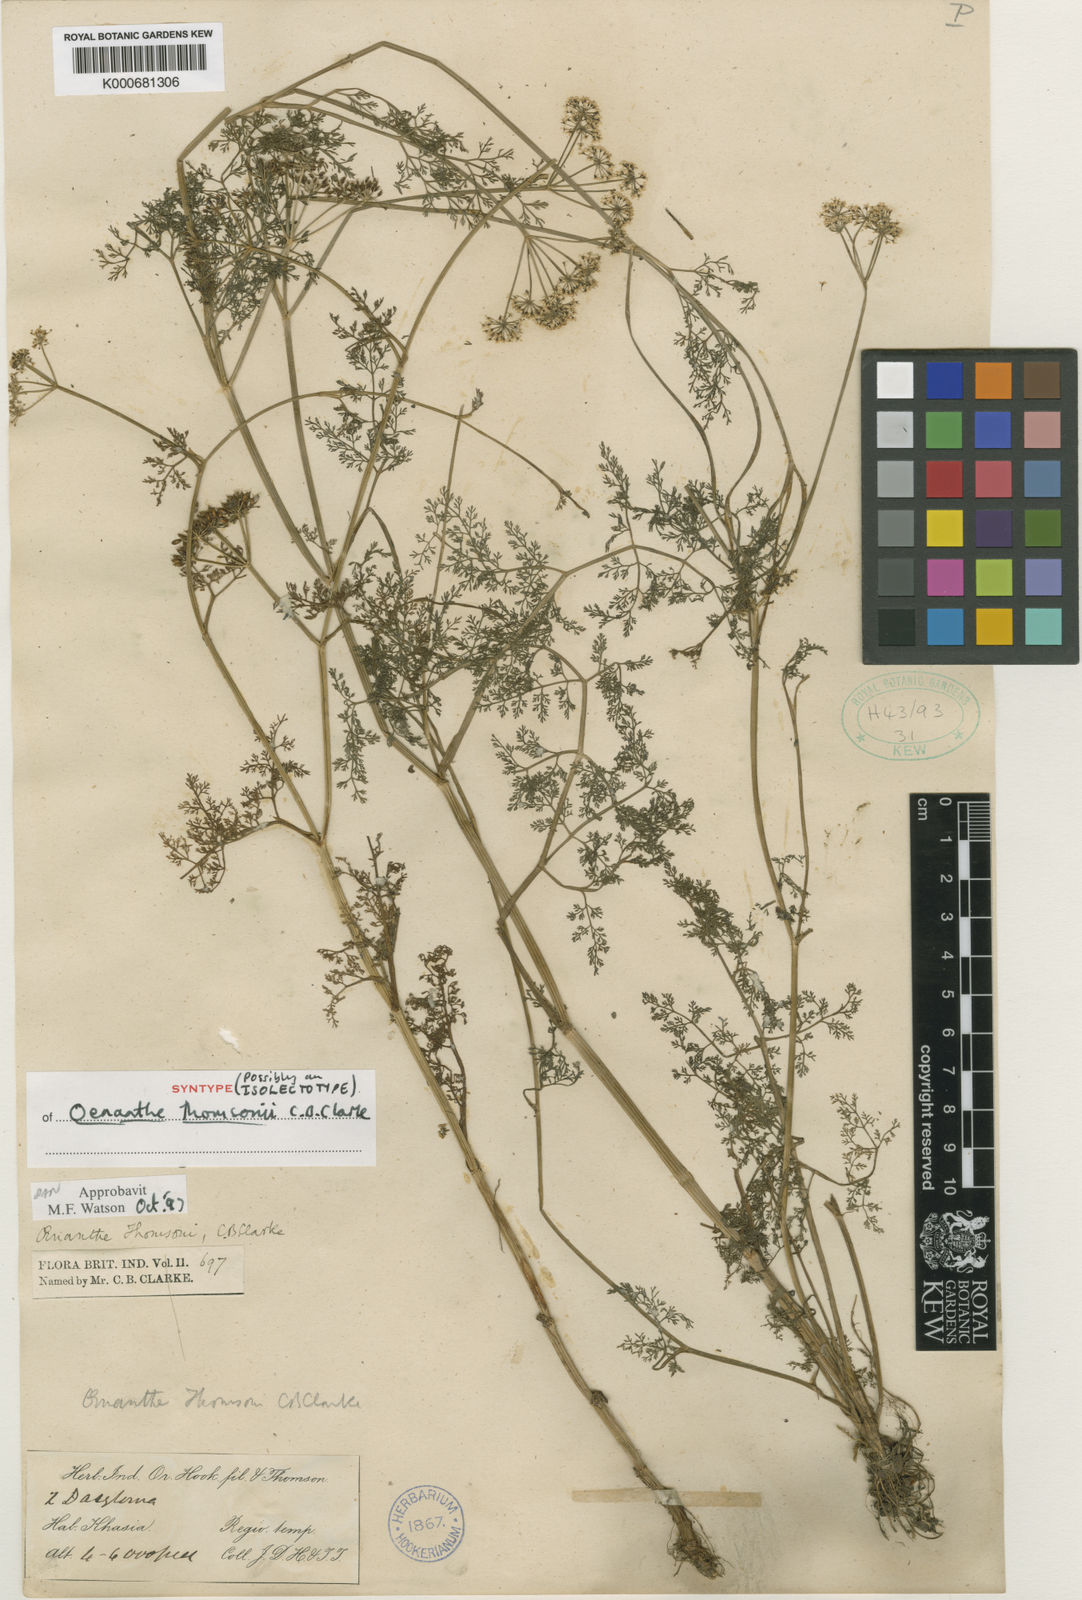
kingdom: Plantae
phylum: Tracheophyta
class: Magnoliopsida
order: Apiales
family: Apiaceae
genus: Oenanthe
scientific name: Oenanthe thomsonii
